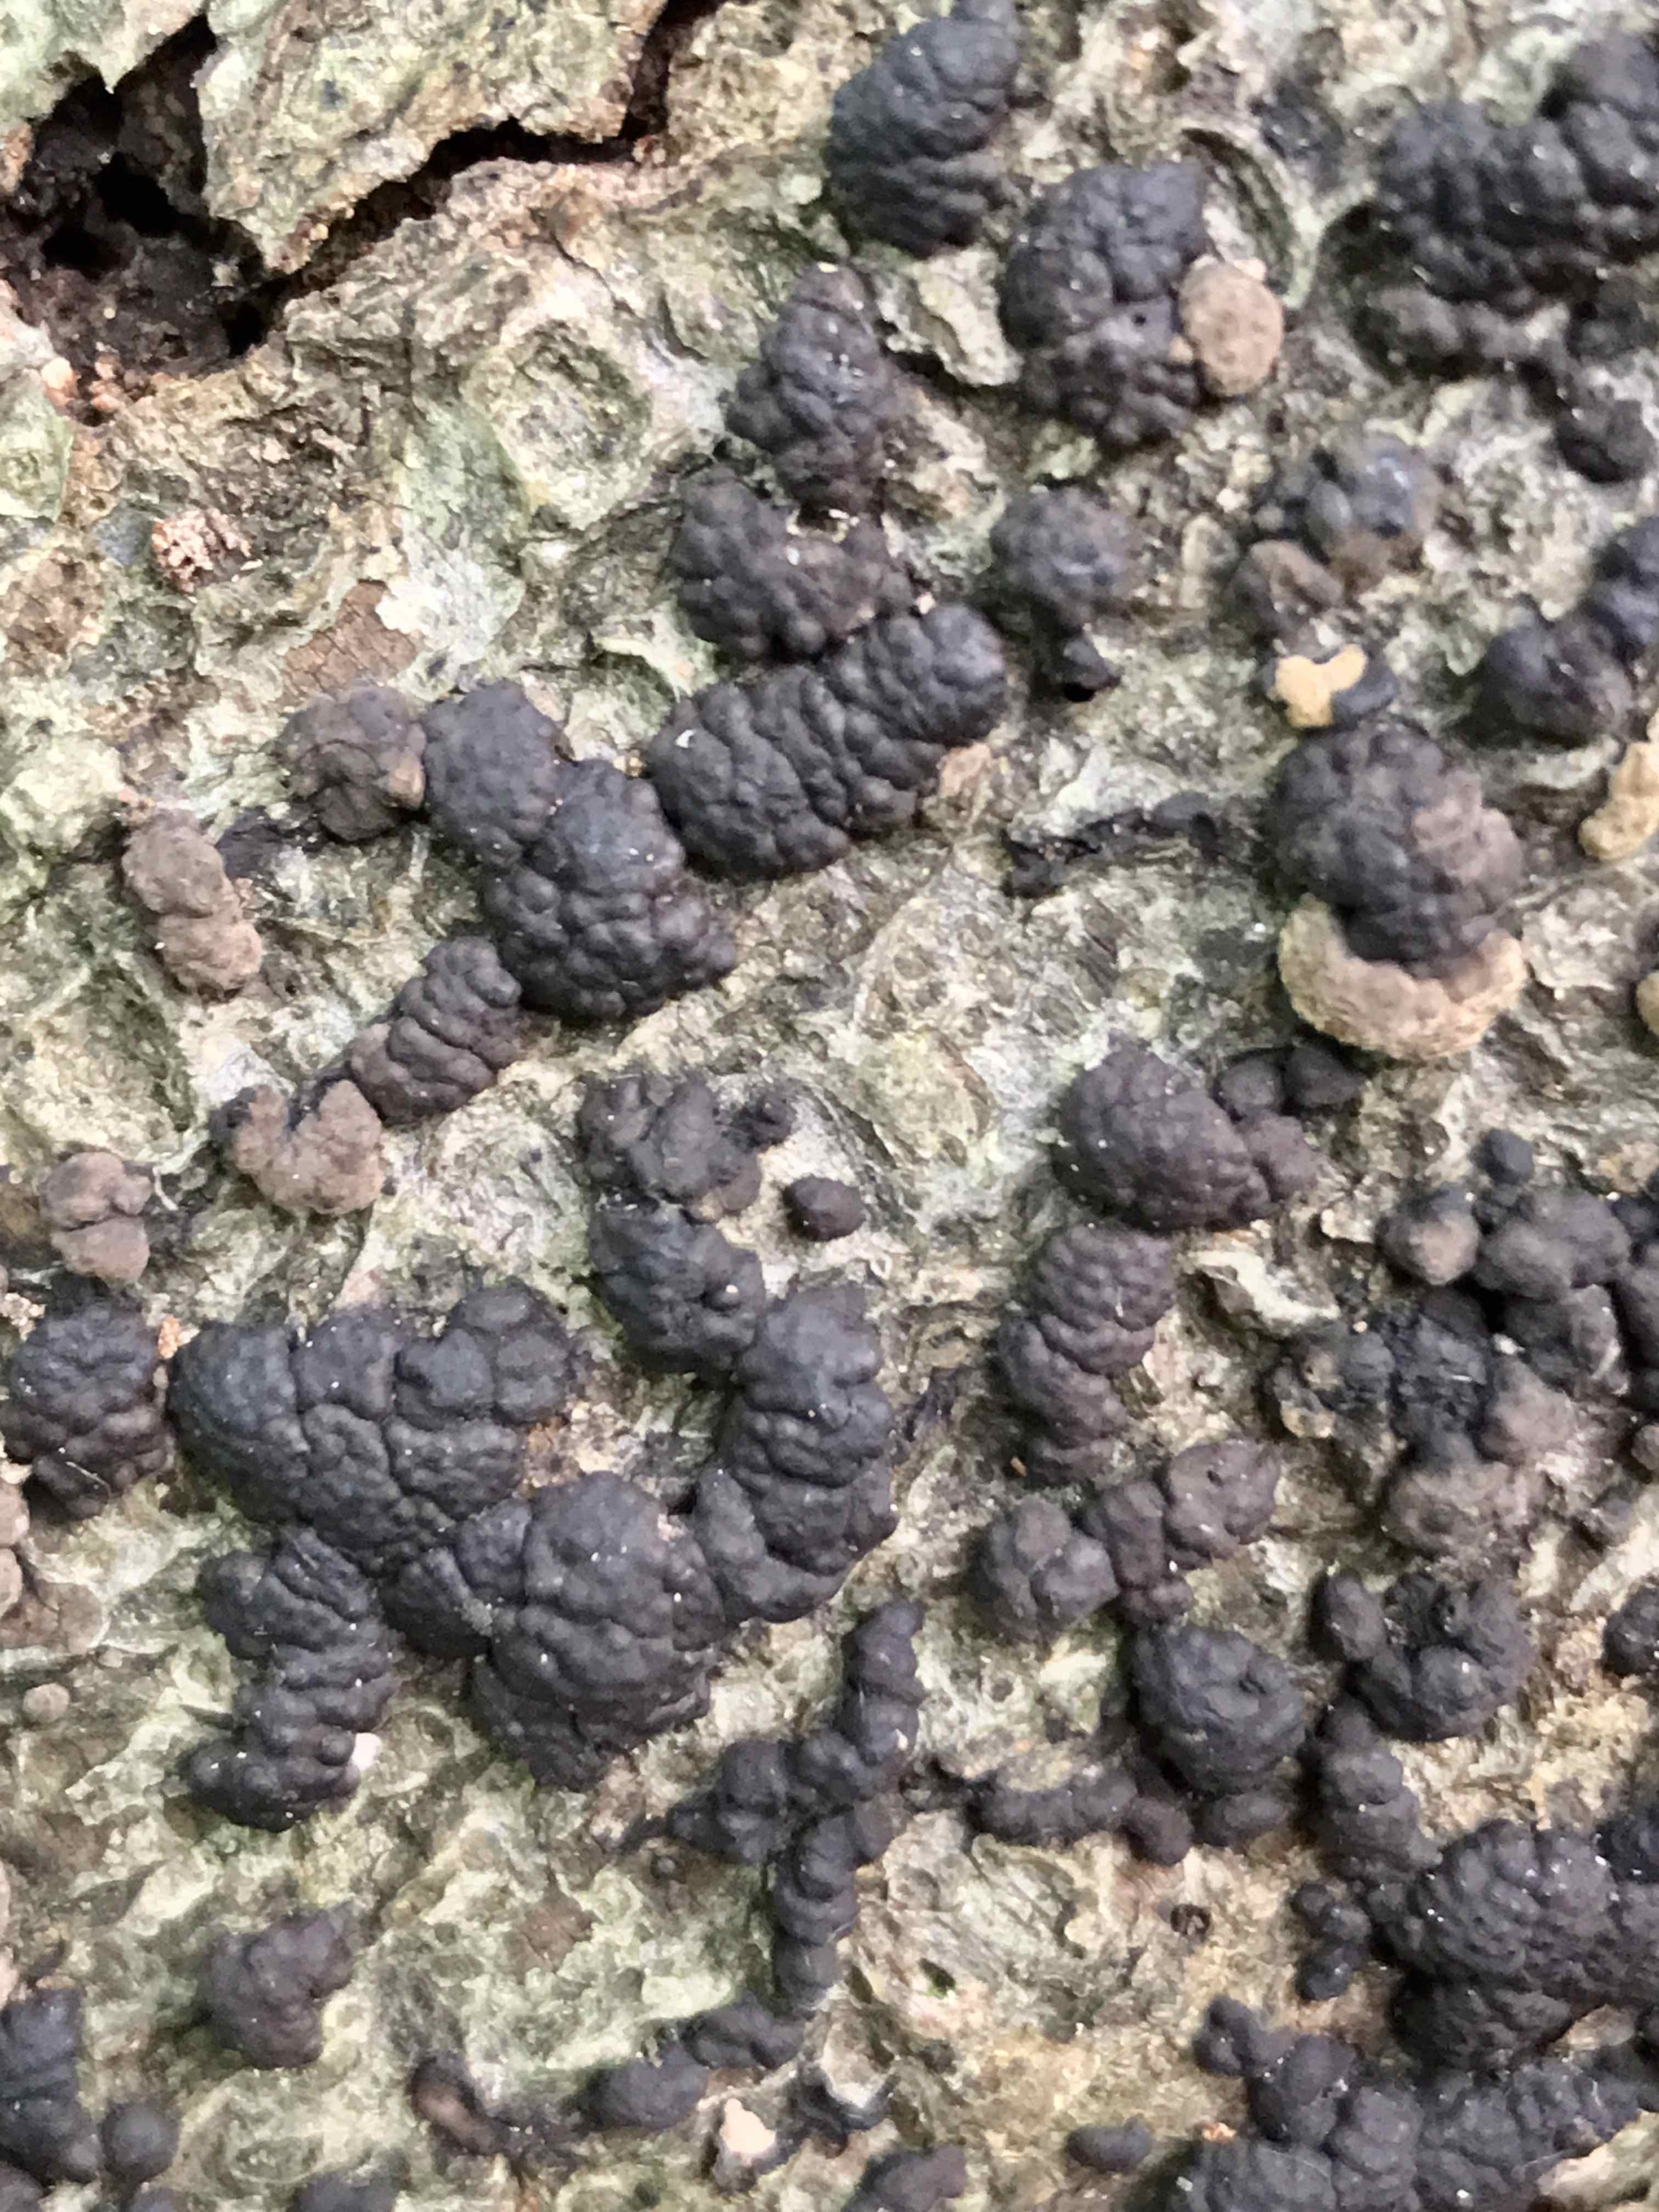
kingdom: Fungi
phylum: Ascomycota
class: Sordariomycetes
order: Xylariales
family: Hypoxylaceae
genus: Jackrogersella
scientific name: Jackrogersella cohaerens
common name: sammenflydende kulbær
